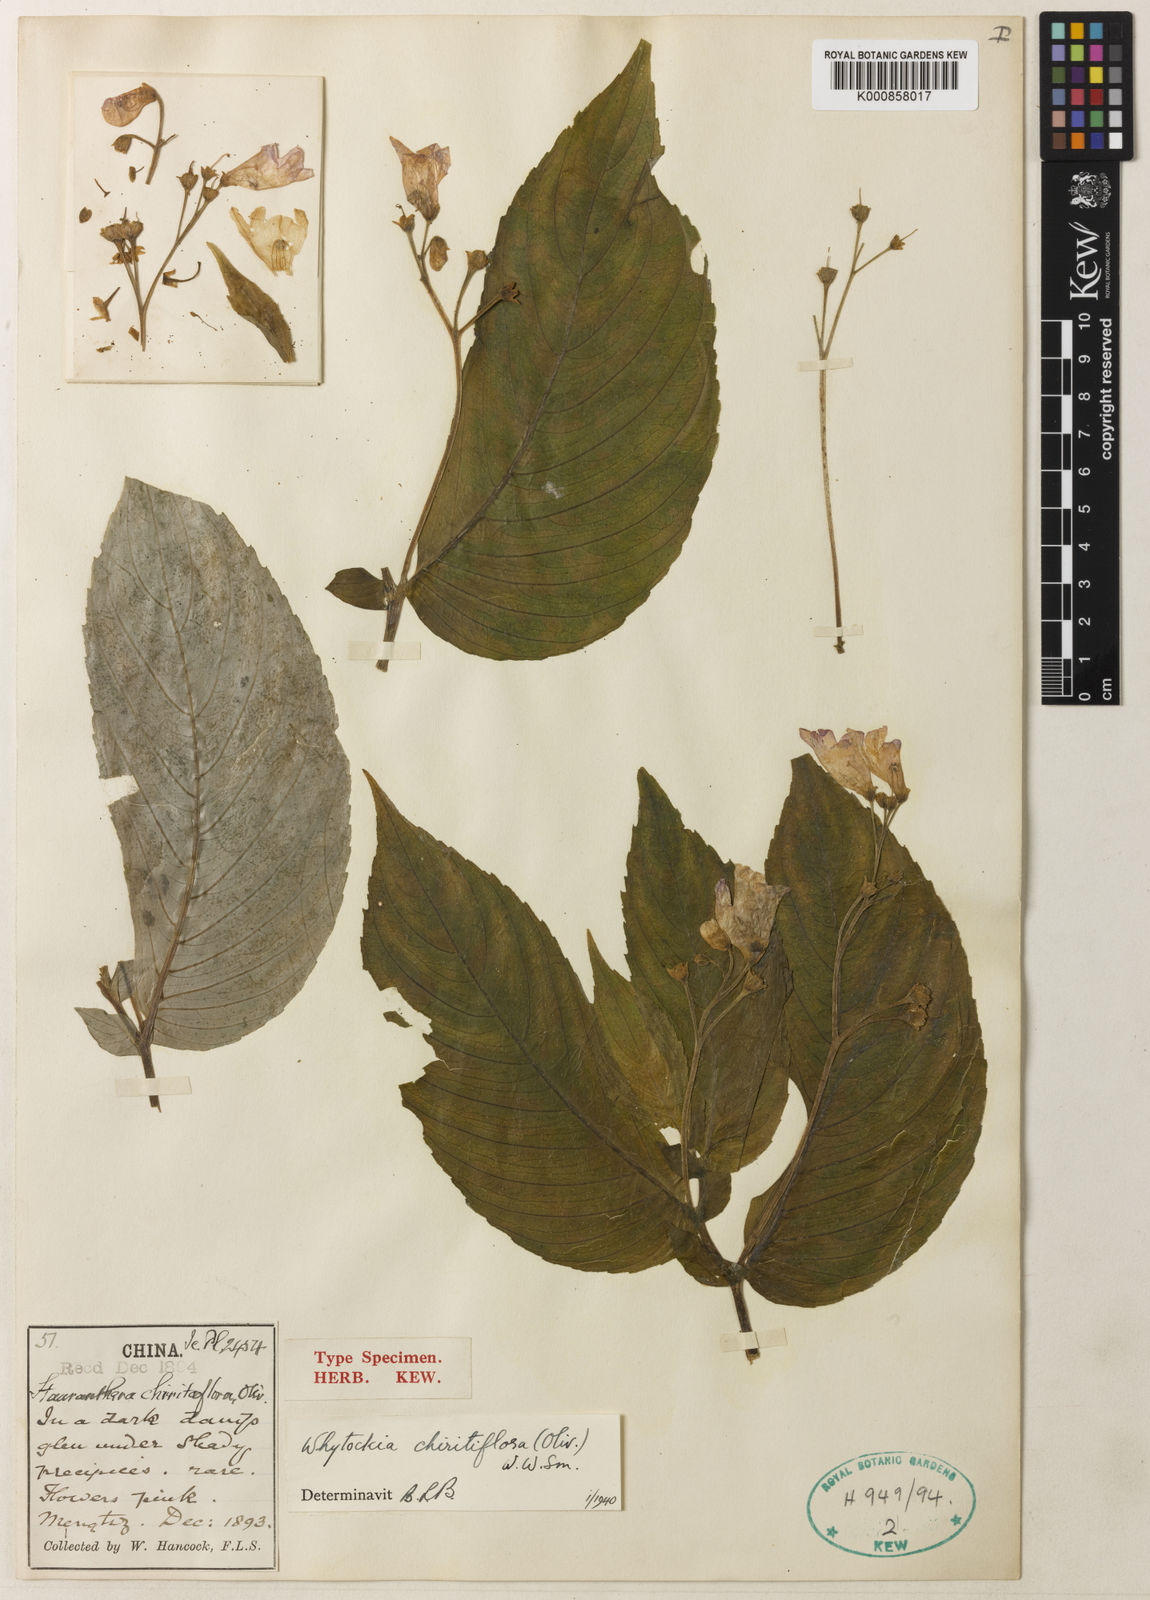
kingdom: Plantae
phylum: Tracheophyta
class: Magnoliopsida
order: Lamiales
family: Gesneriaceae
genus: Whytockia
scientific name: Whytockia chiritiflora
